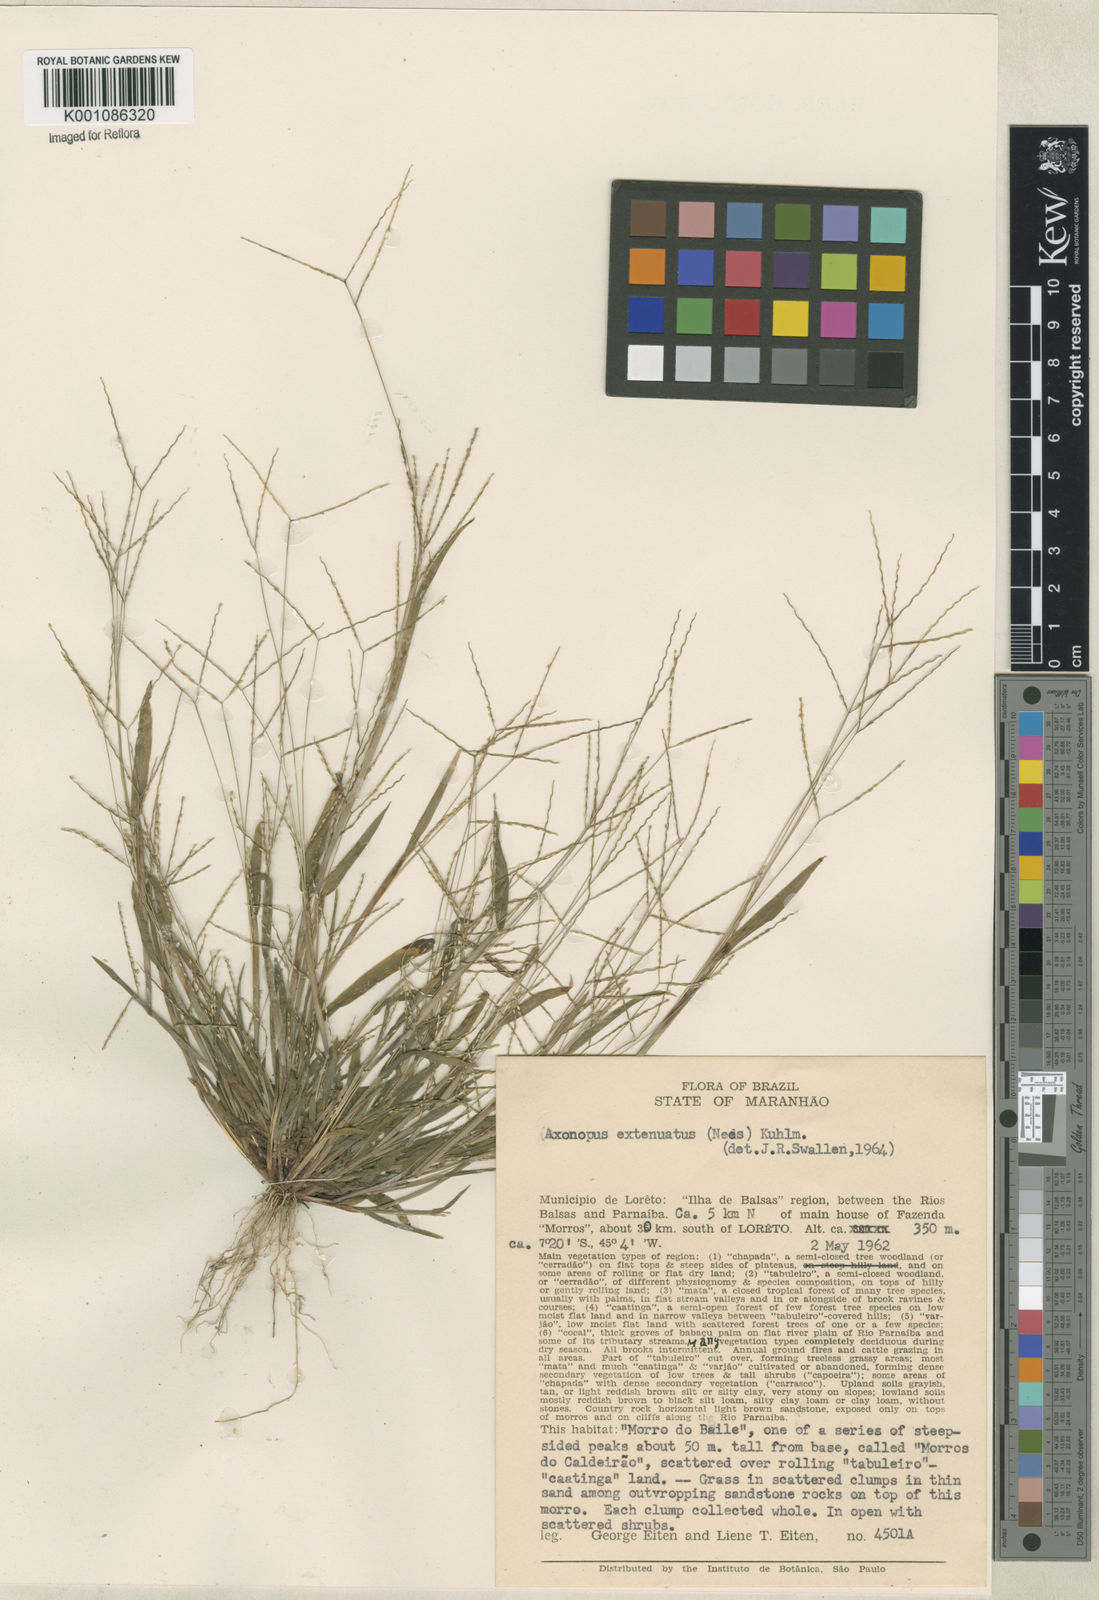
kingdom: Plantae
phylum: Tracheophyta
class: Liliopsida
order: Poales
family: Poaceae
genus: Axonopus
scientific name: Axonopus capillaris
